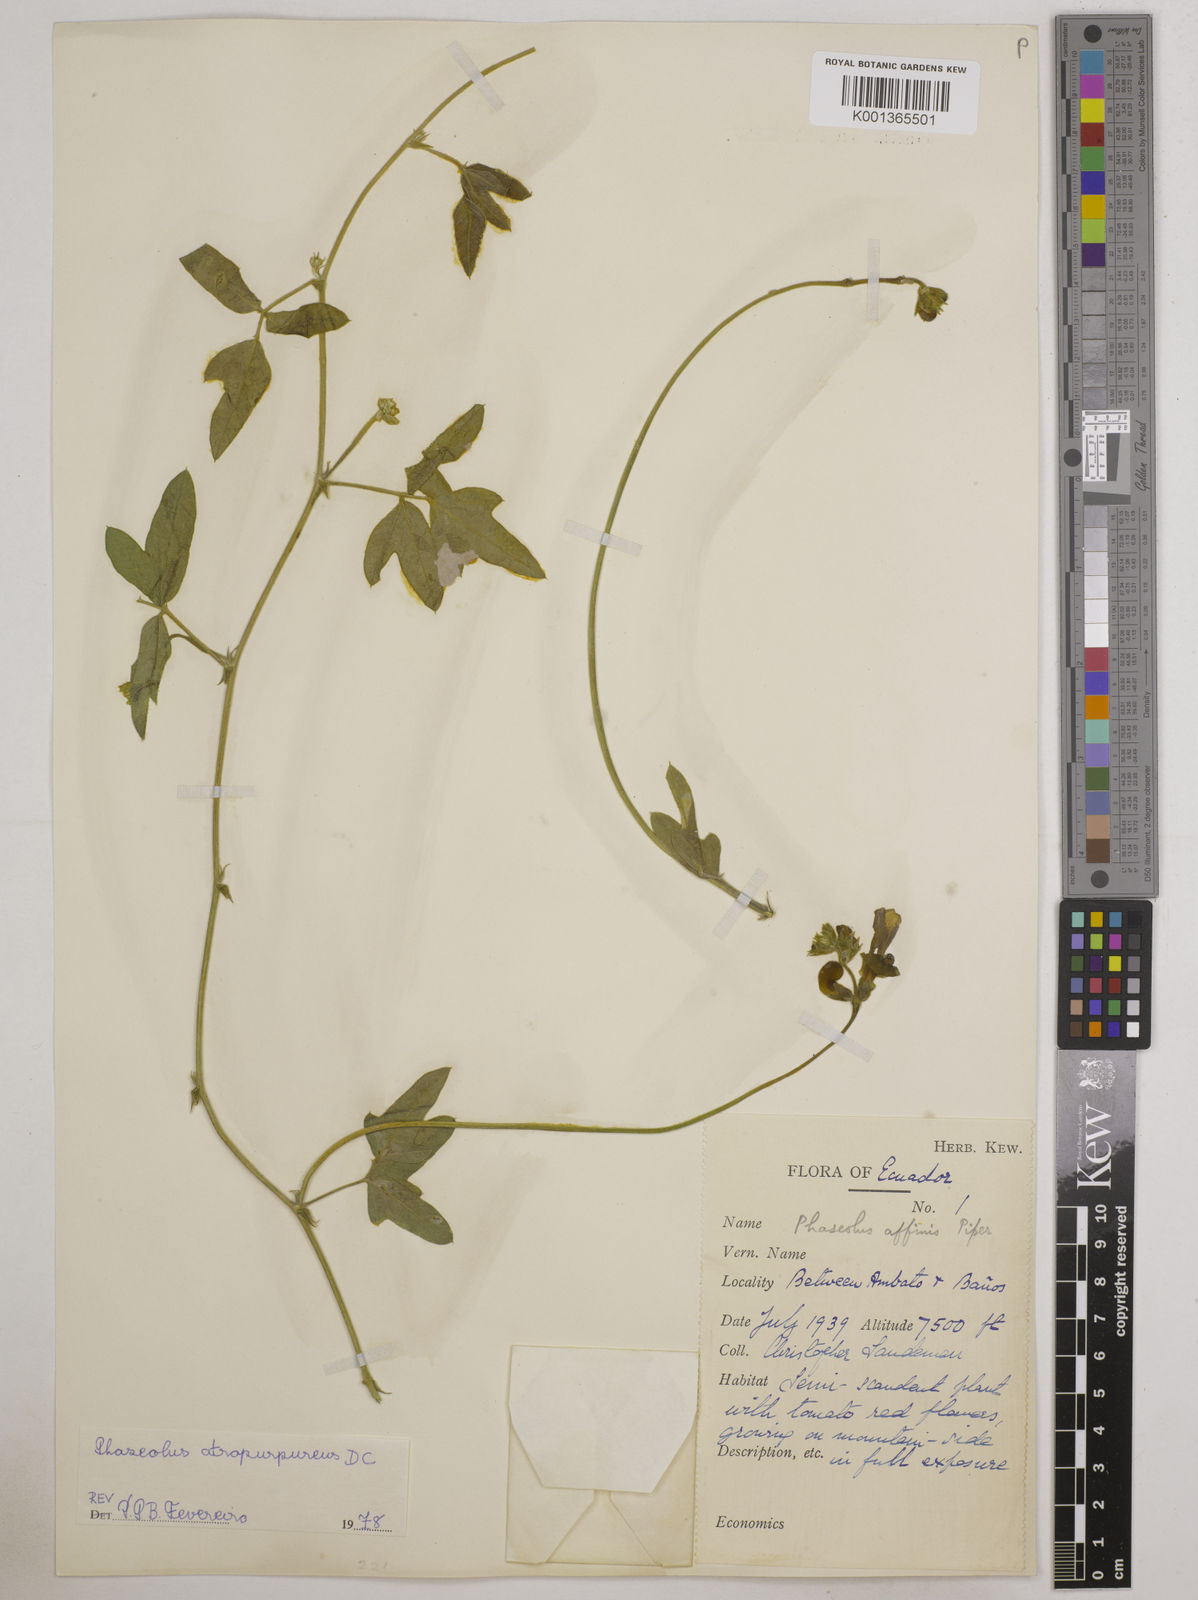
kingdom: Plantae
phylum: Tracheophyta
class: Magnoliopsida
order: Fabales
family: Fabaceae
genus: Macroptilium
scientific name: Macroptilium atropurpureum
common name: Purple bushbean
